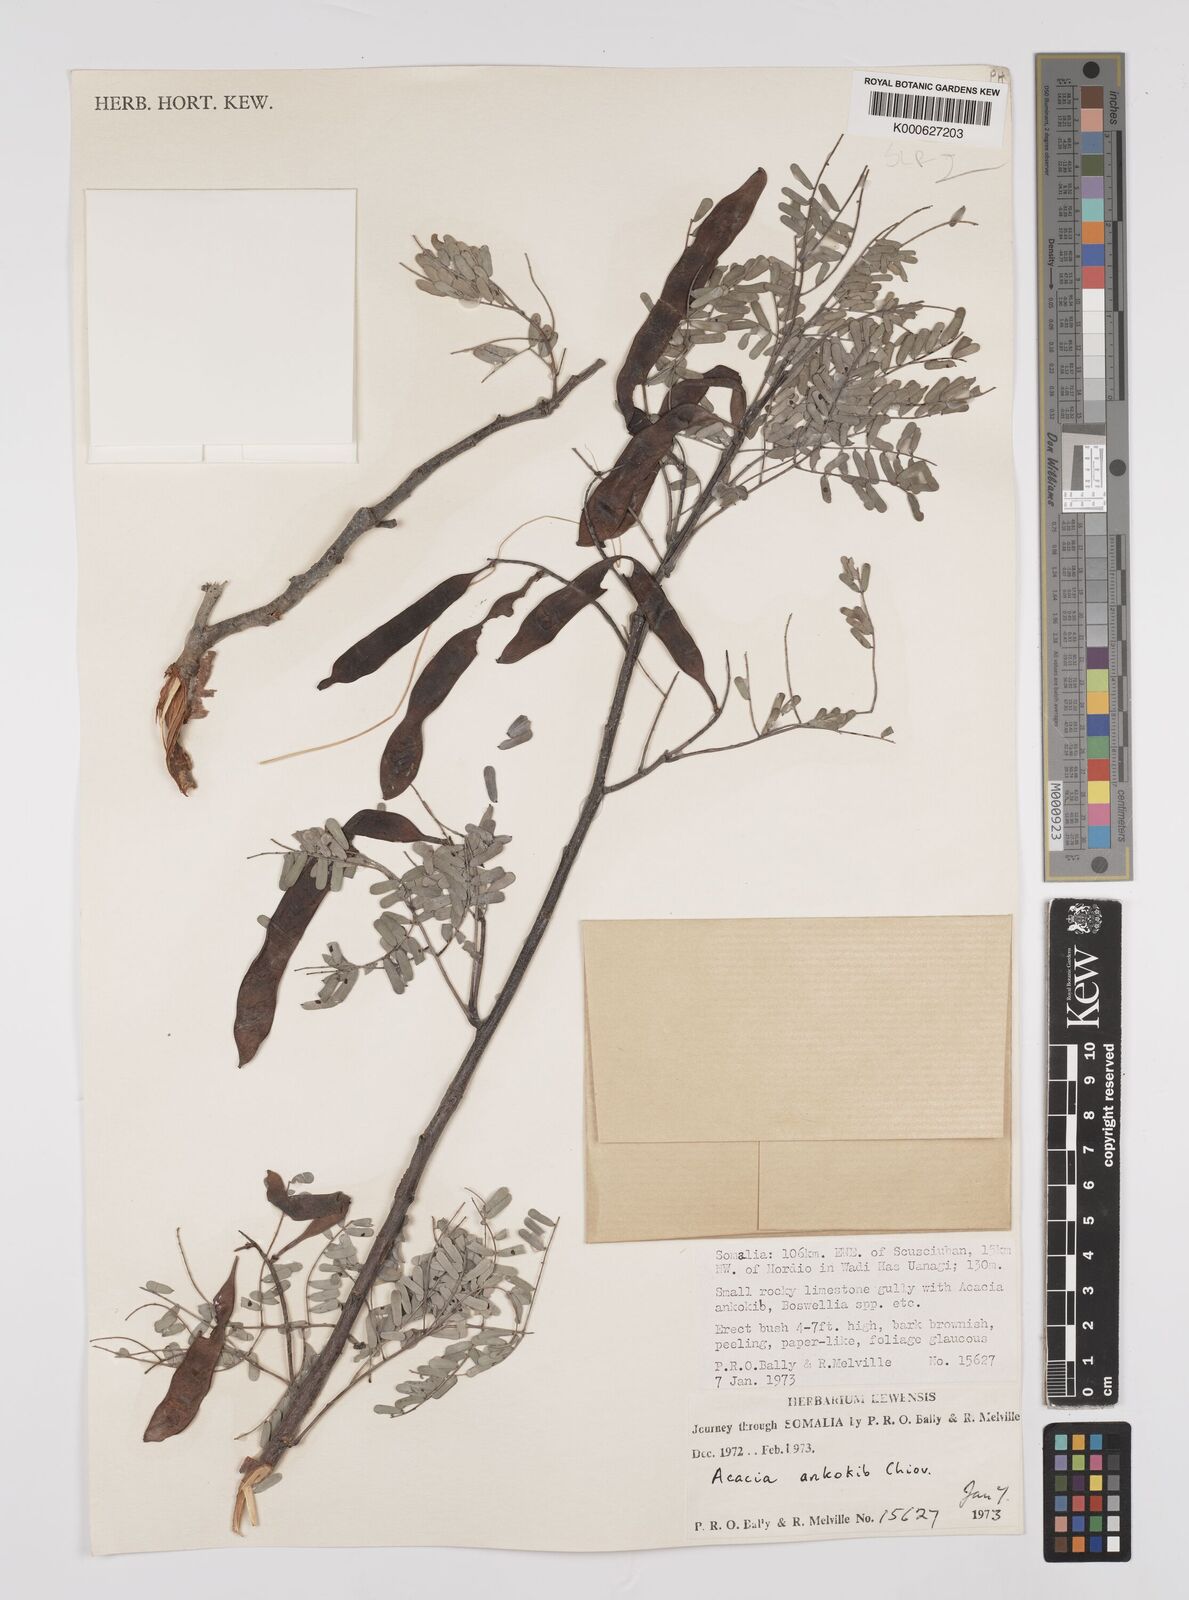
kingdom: Plantae
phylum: Tracheophyta
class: Magnoliopsida
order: Fabales
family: Fabaceae
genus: Senegalia
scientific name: Senegalia ankokib
